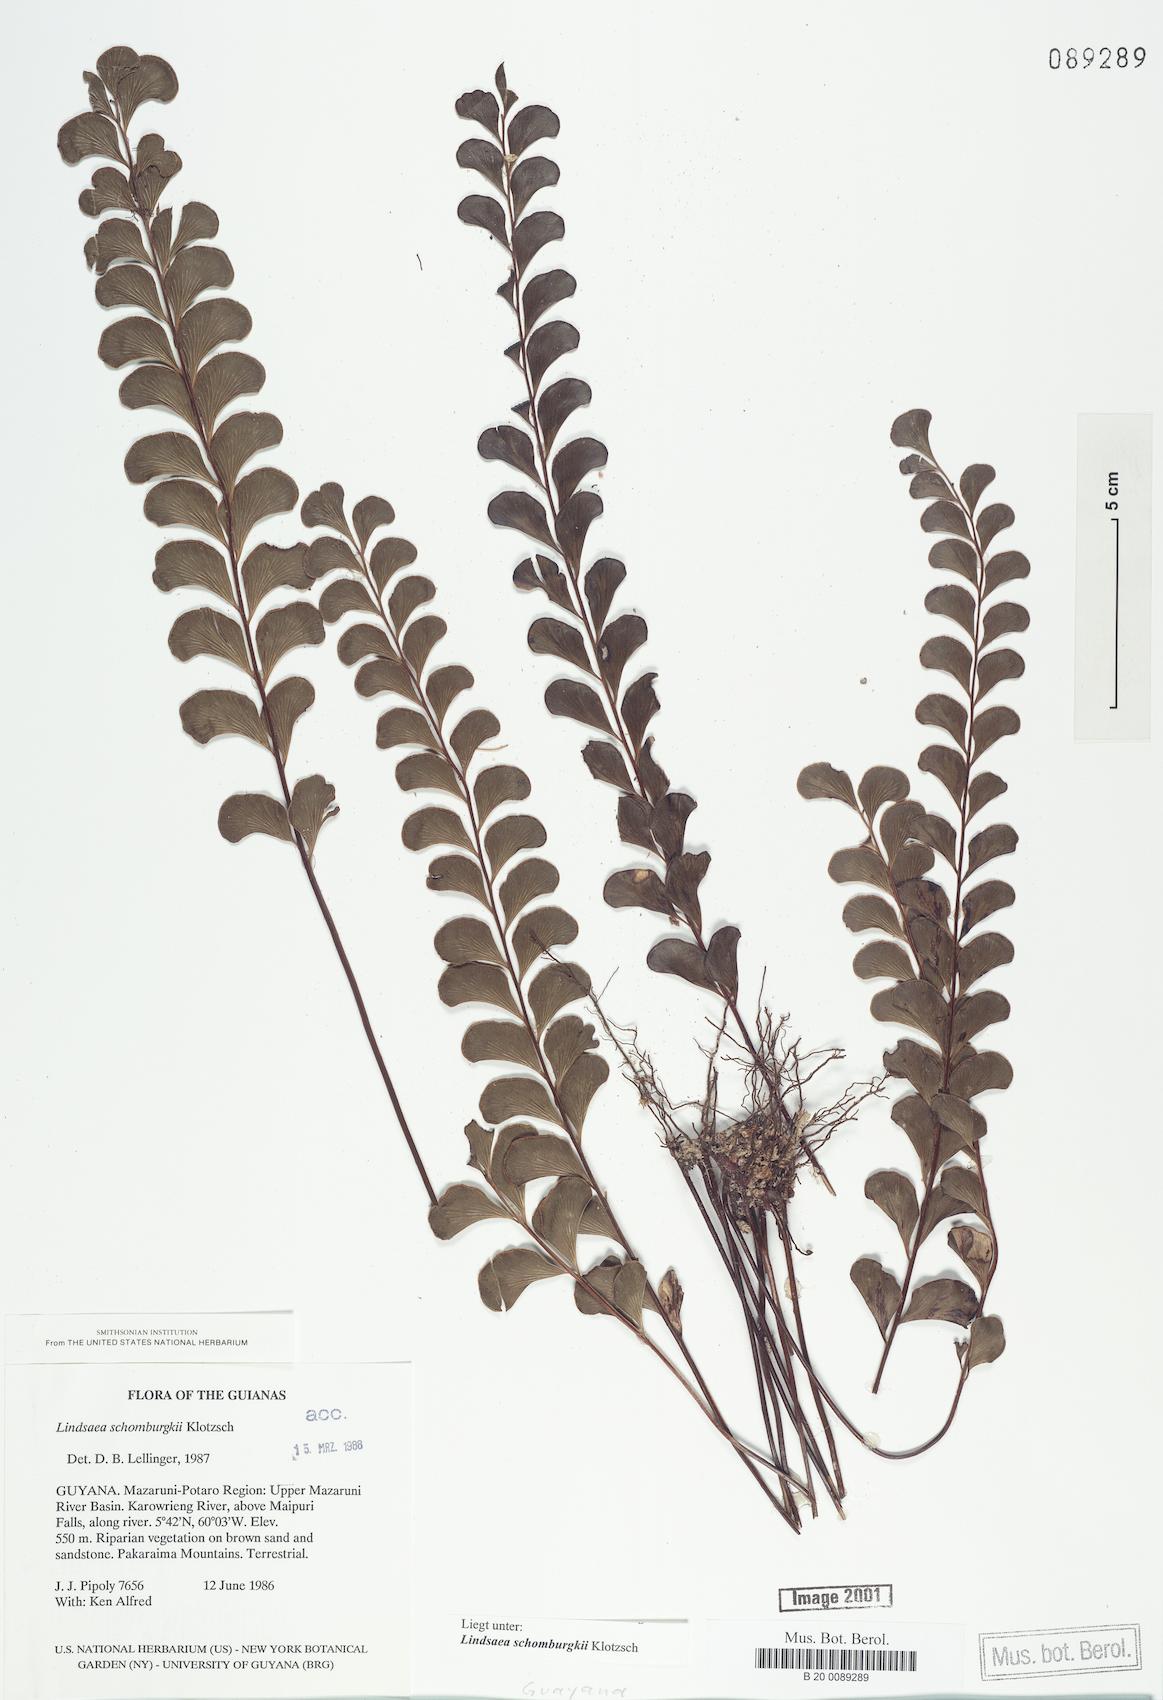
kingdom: Plantae
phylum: Tracheophyta
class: Polypodiopsida
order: Polypodiales
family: Lindsaeaceae
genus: Lindsaea
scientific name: Lindsaea schomburgkii
